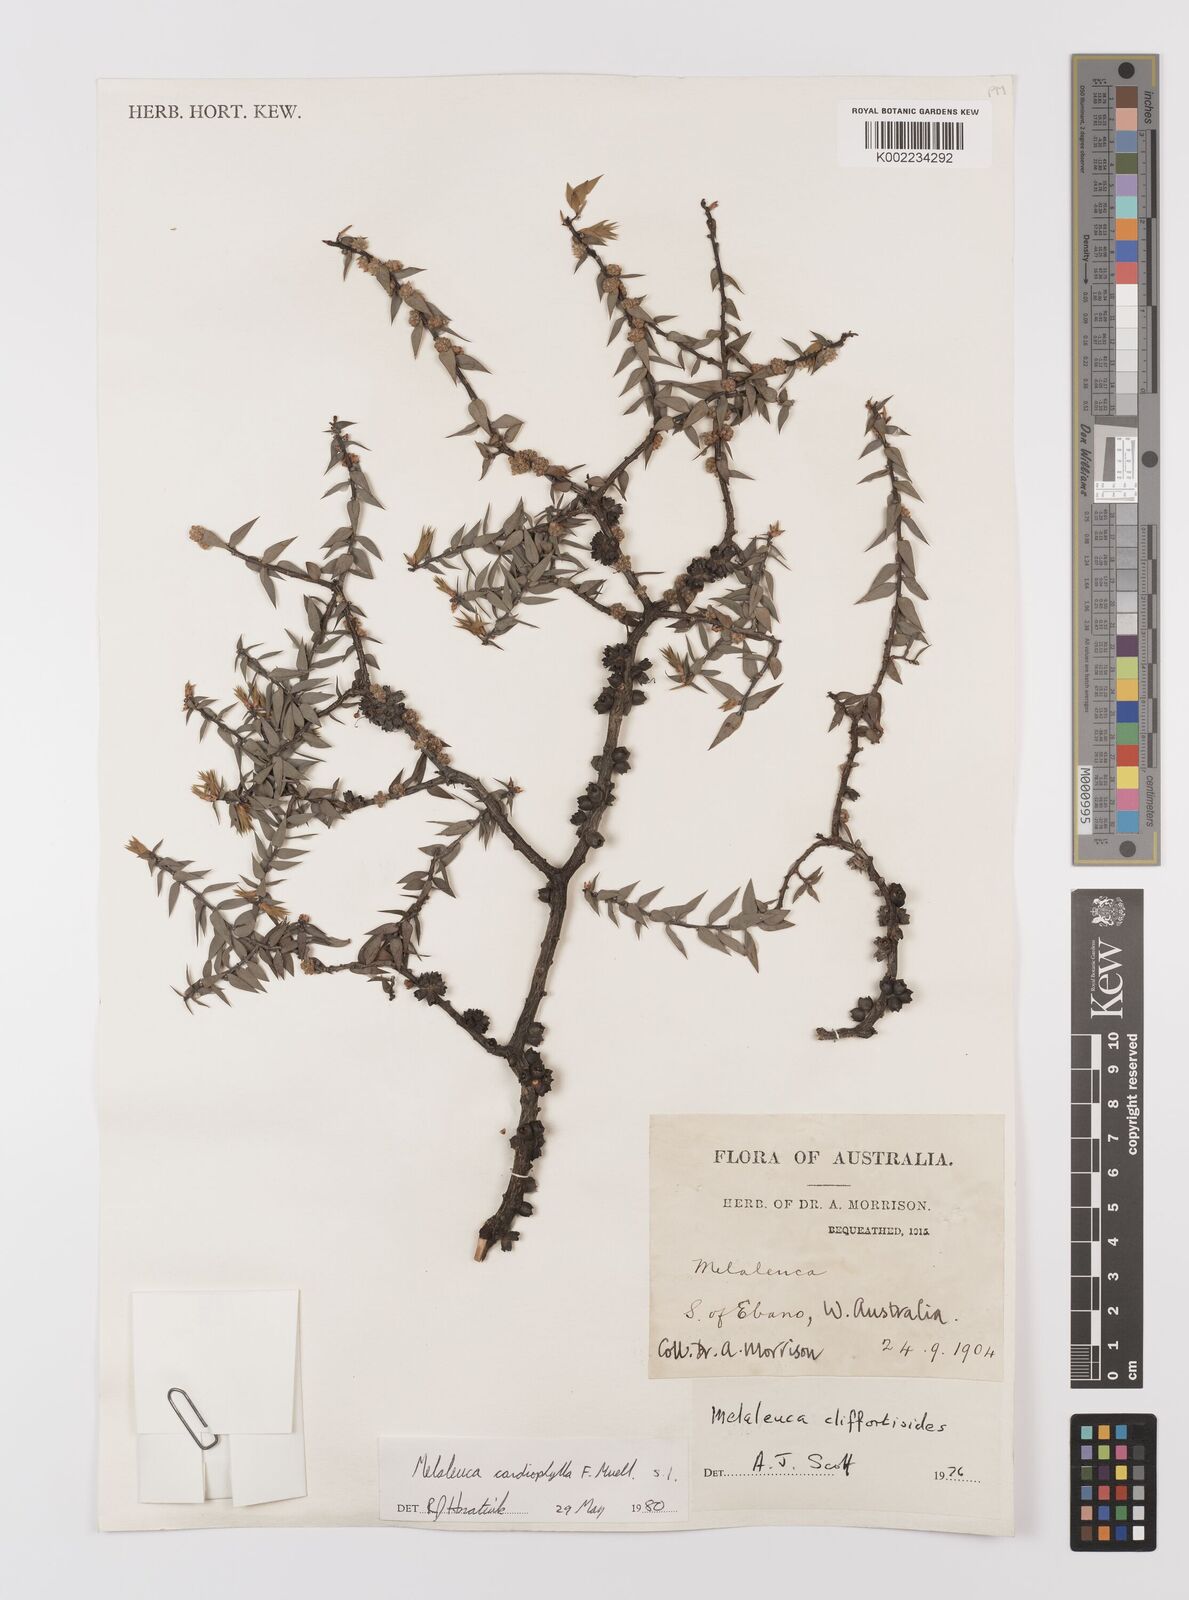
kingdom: Plantae
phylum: Tracheophyta
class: Magnoliopsida
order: Myrtales
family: Myrtaceae
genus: Melaleuca
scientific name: Melaleuca cardiophylla
